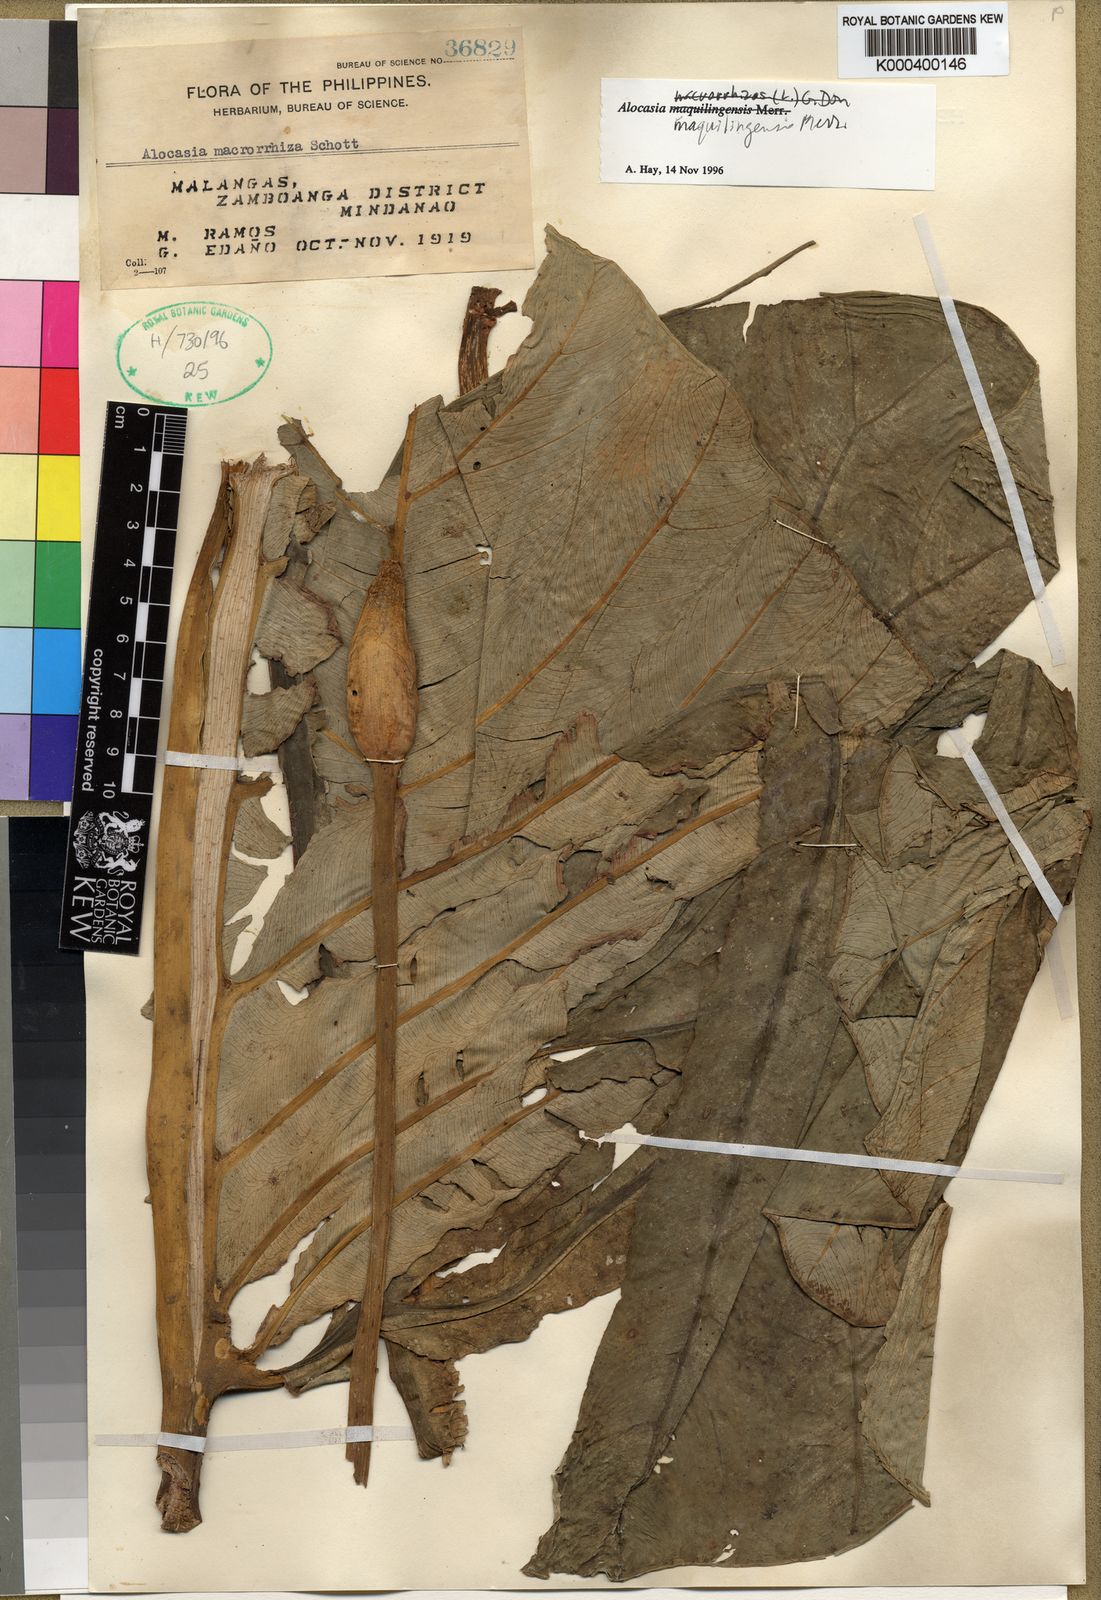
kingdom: Plantae
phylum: Tracheophyta
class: Liliopsida
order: Alismatales
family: Araceae
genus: Alocasia
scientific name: Alocasia maquilingensis
